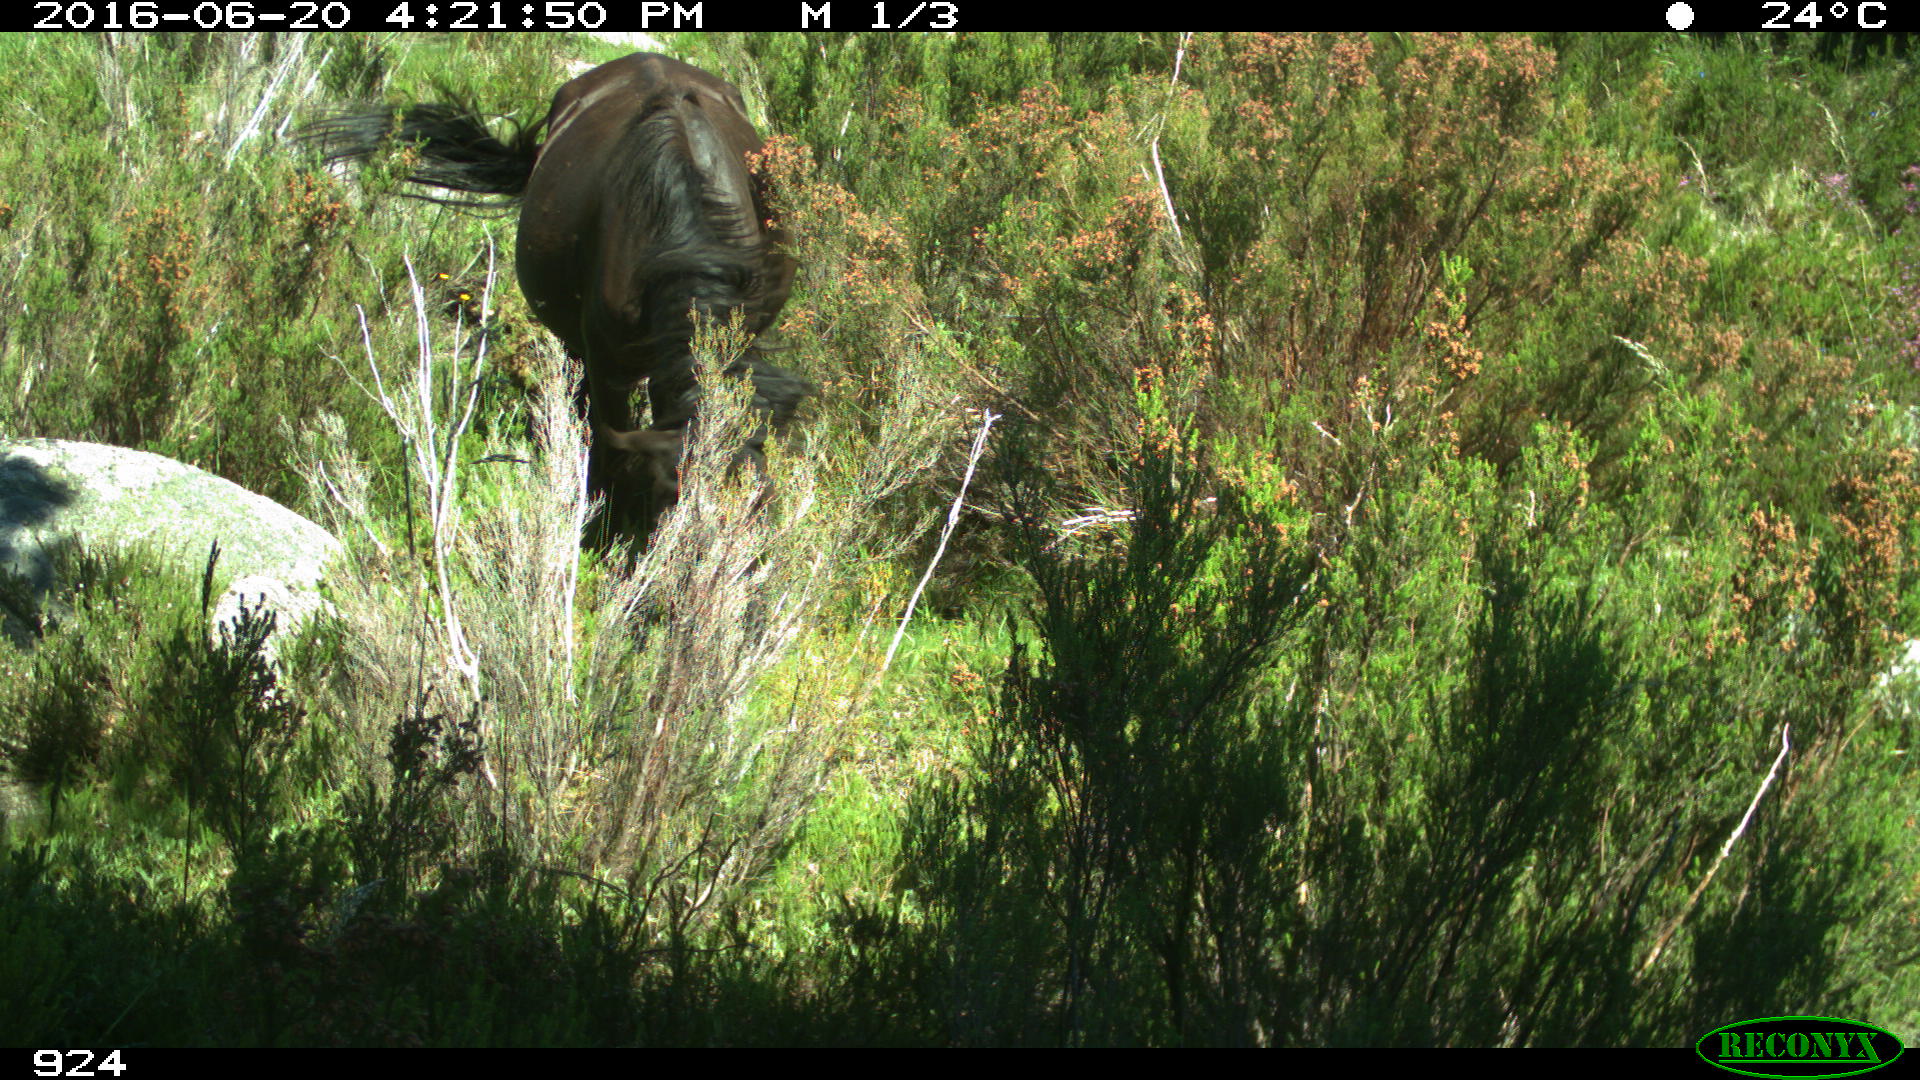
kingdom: Animalia
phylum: Chordata
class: Mammalia
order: Perissodactyla
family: Equidae
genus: Equus
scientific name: Equus caballus
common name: Horse
